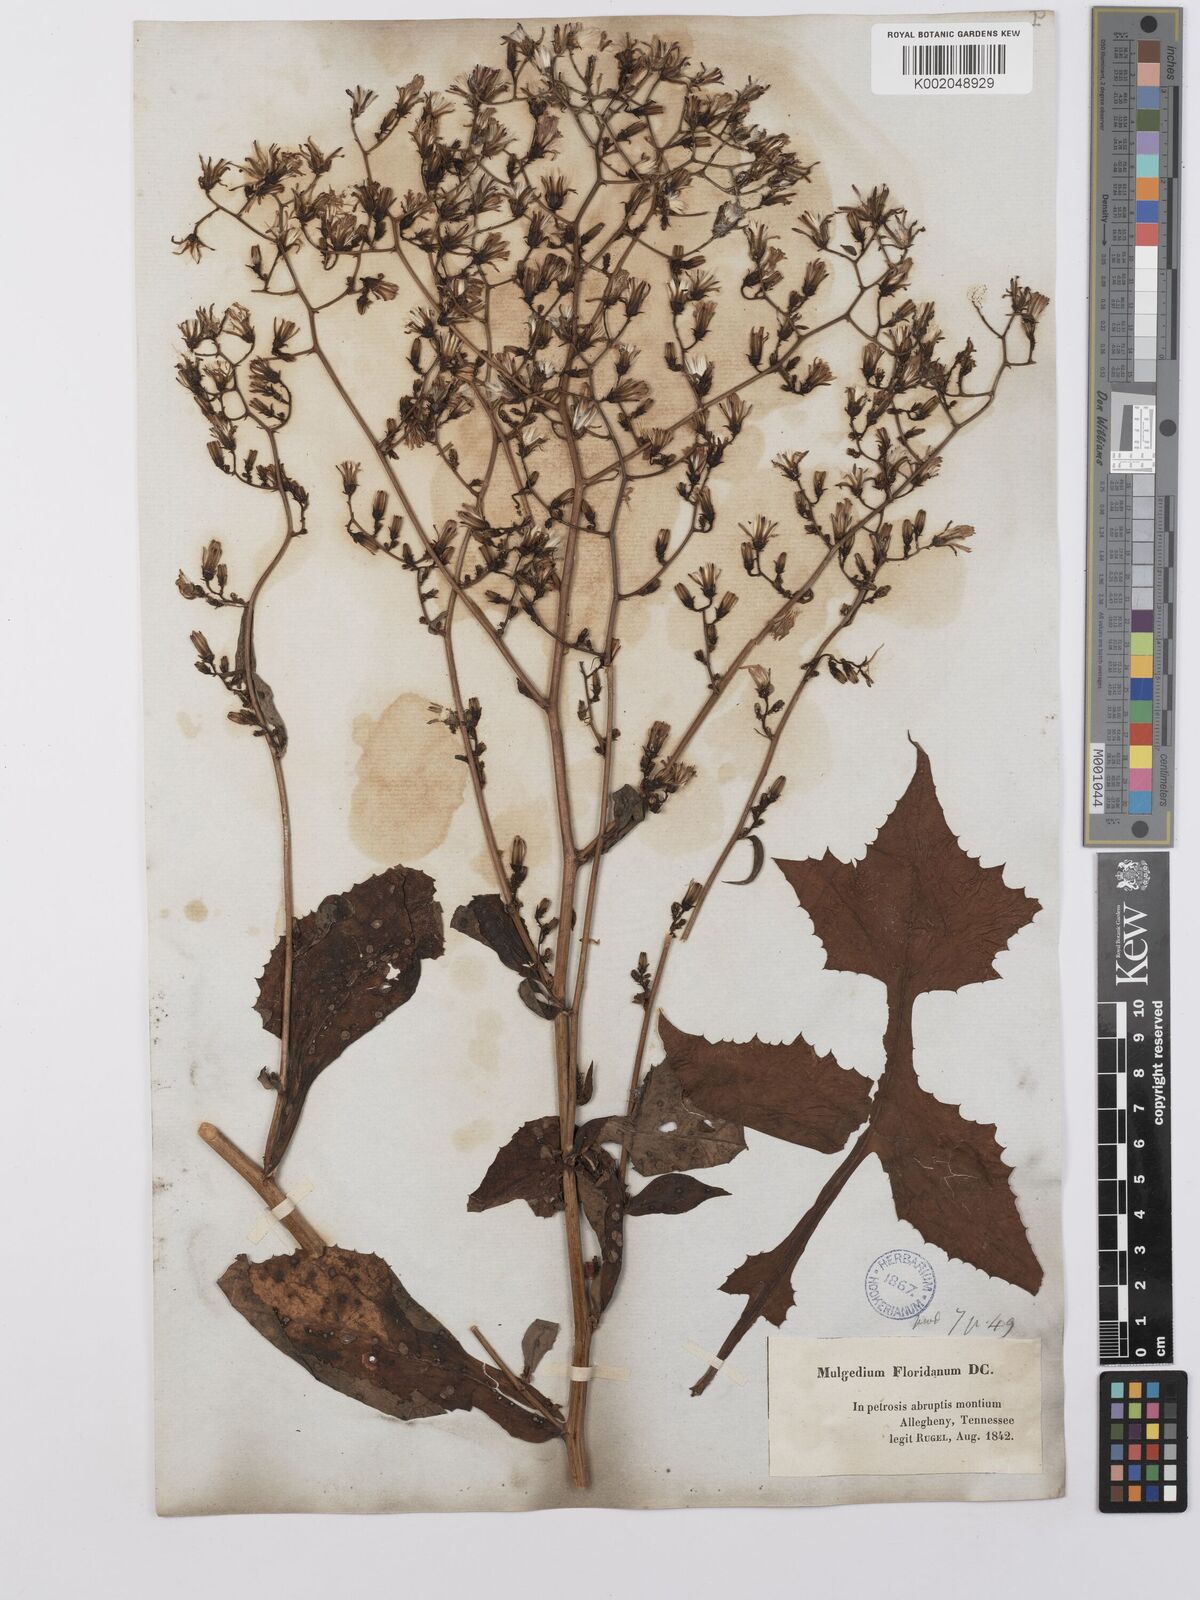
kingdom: Plantae
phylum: Tracheophyta
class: Magnoliopsida
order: Asterales
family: Asteraceae
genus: Lactuca
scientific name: Lactuca floridana
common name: Woodland lettuce
